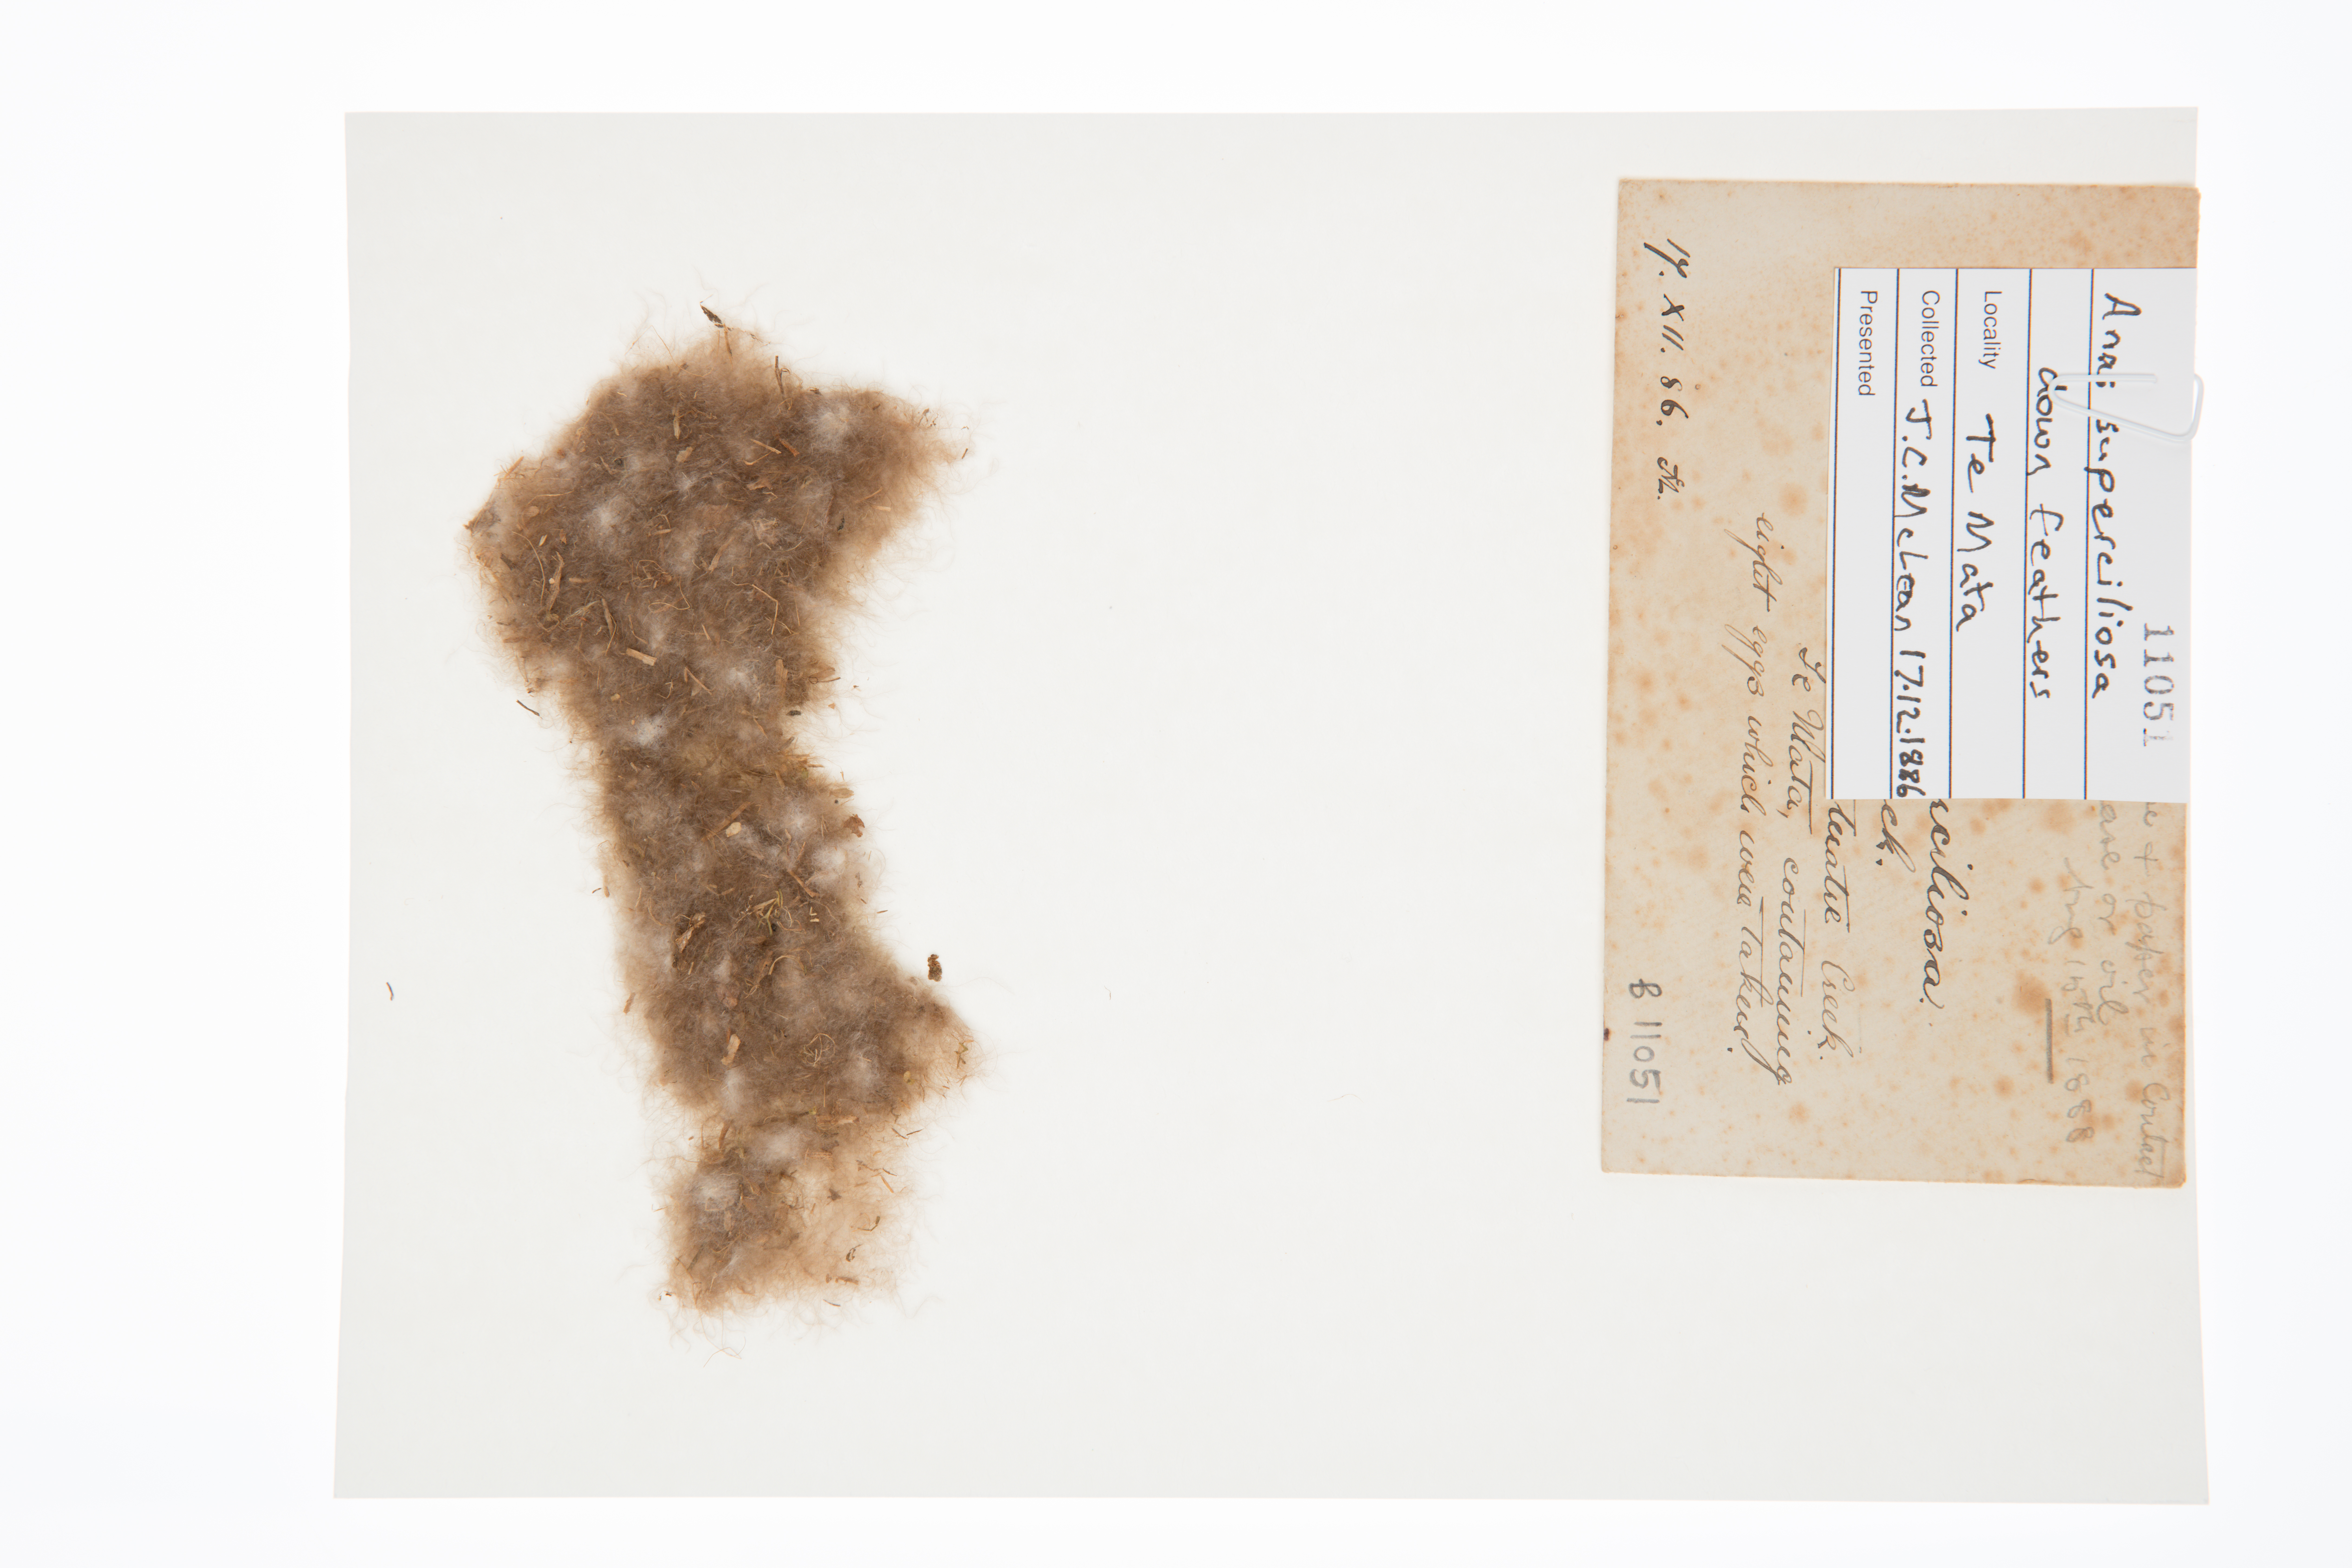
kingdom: Animalia
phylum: Chordata
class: Aves
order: Anseriformes
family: Anatidae
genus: Anas
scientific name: Anas superciliosa
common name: Pacific black duck
